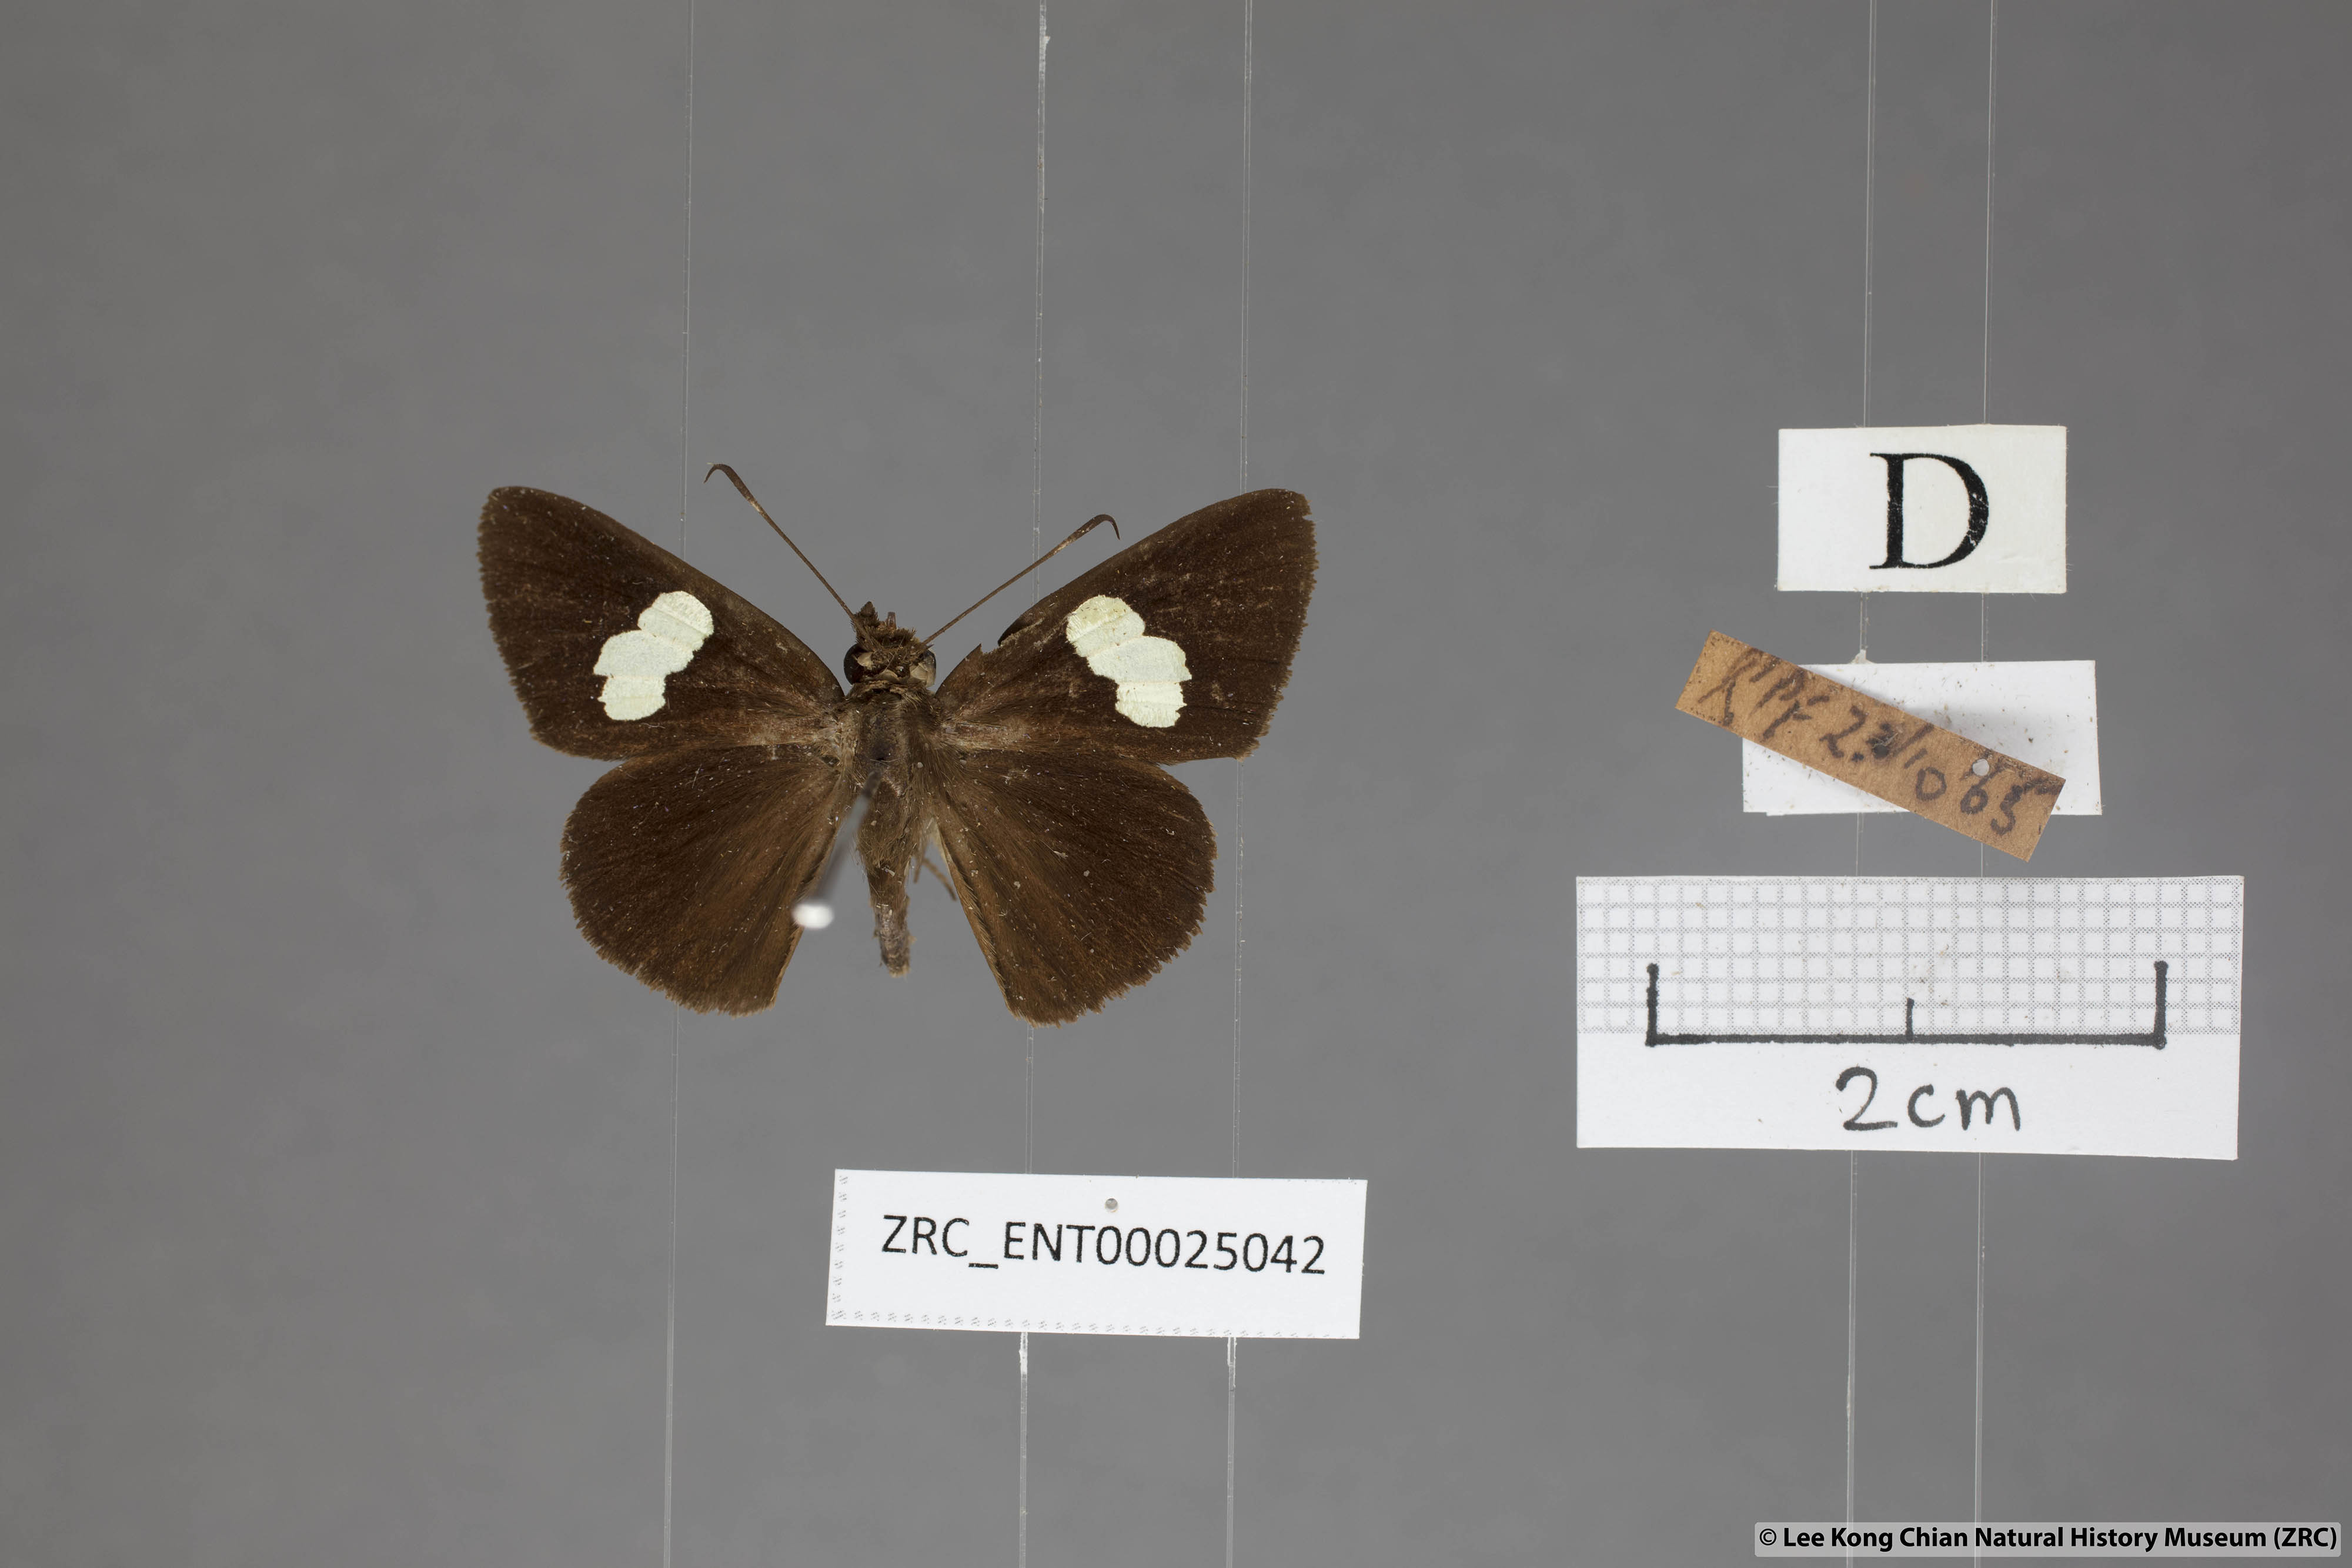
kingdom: Animalia
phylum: Arthropoda
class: Insecta
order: Lepidoptera
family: Hesperiidae
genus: Notocrypta
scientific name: Notocrypta paralysos
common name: Common banded demon
